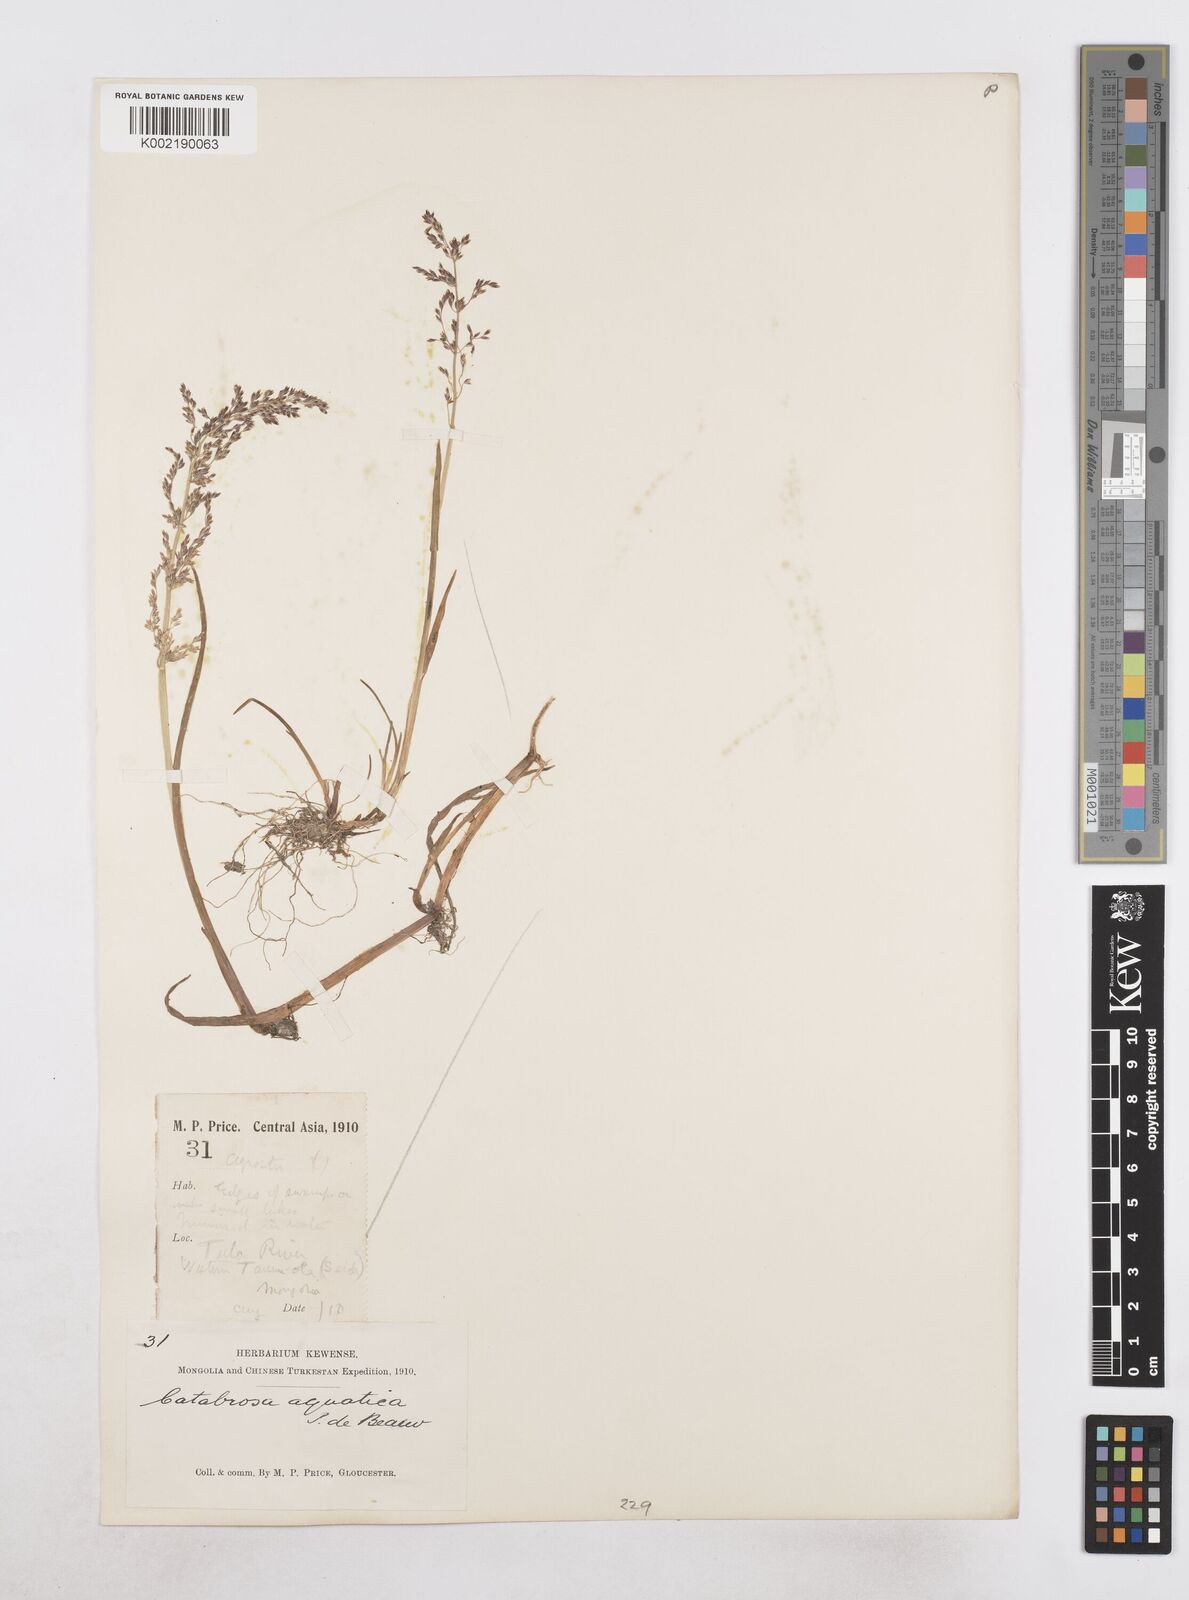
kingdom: Plantae
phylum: Tracheophyta
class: Liliopsida
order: Poales
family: Poaceae
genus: Catabrosa
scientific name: Catabrosa aquatica
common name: Whorl-grass
